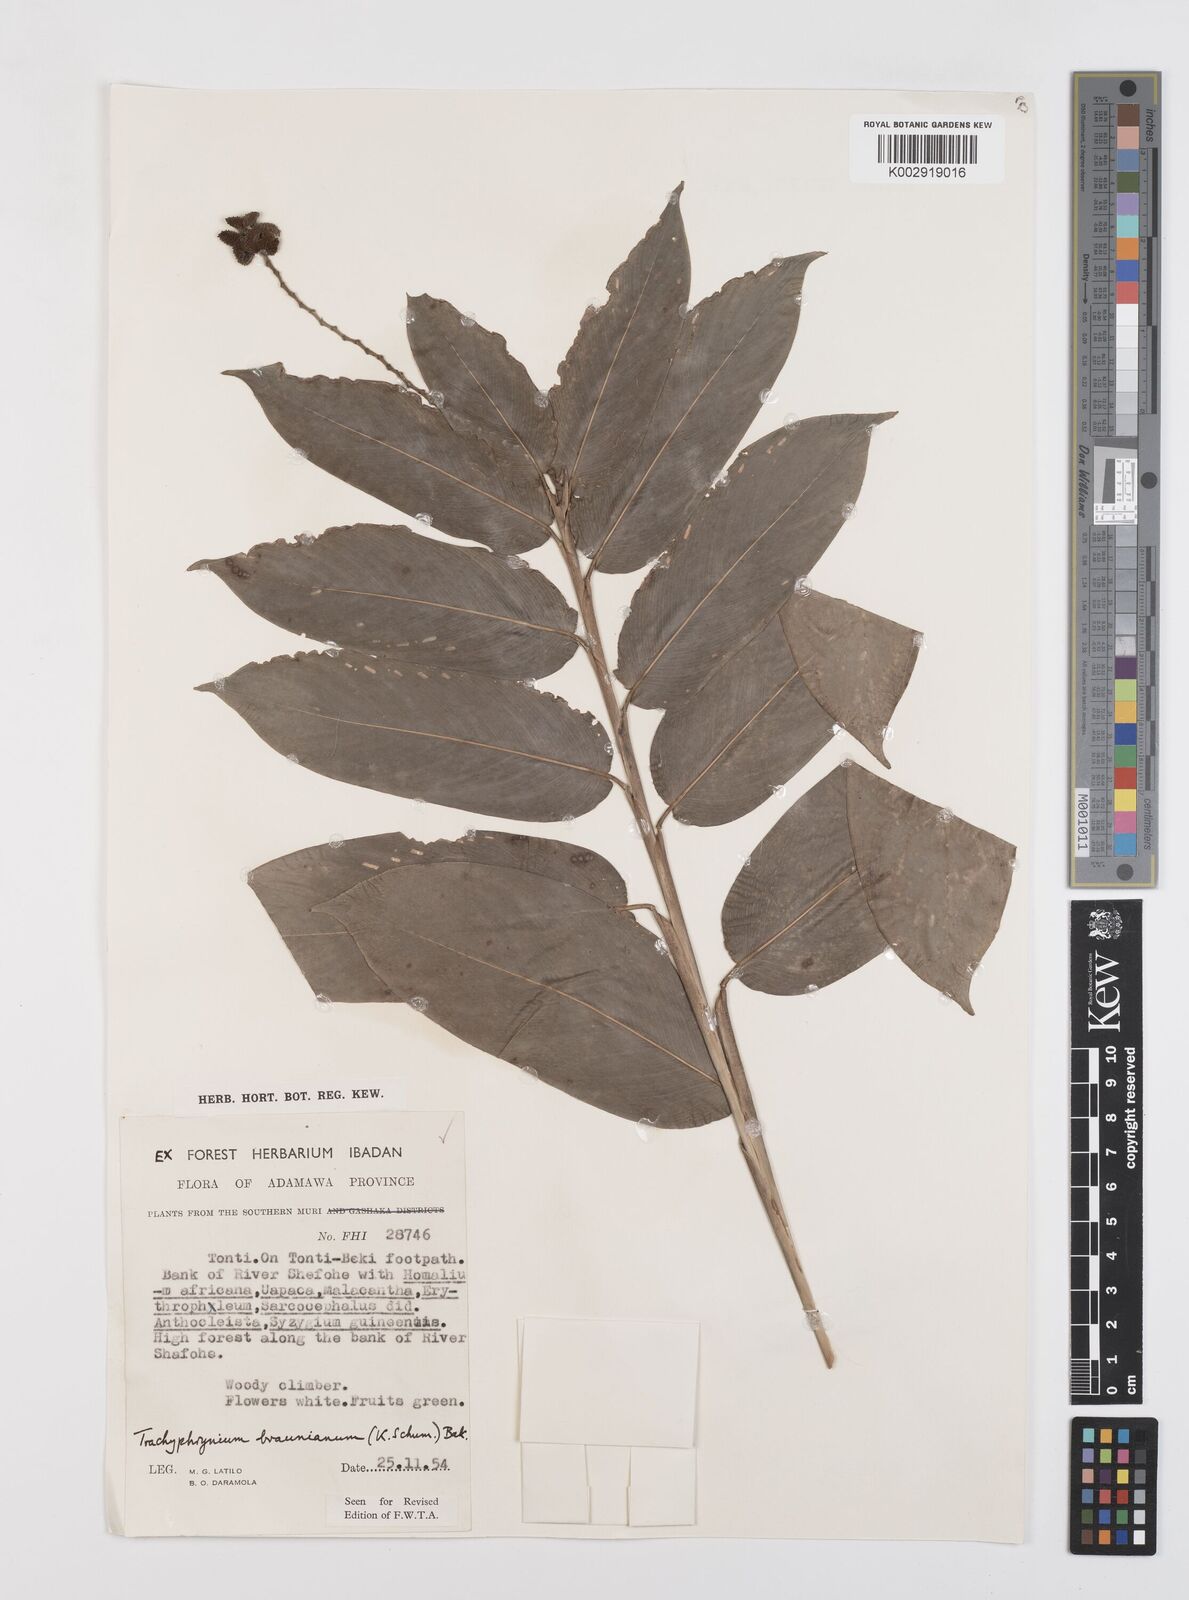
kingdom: Plantae
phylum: Tracheophyta
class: Liliopsida
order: Zingiberales
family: Marantaceae
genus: Trachyphrynium
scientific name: Trachyphrynium braunianum
